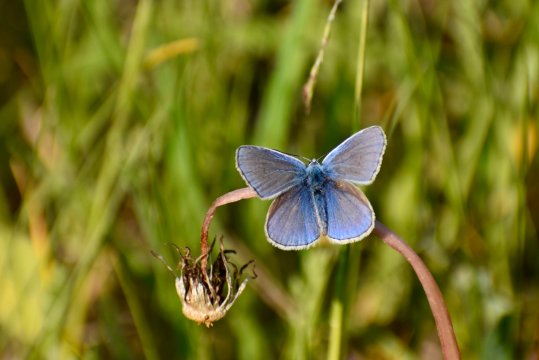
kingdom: Animalia
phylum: Arthropoda
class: Insecta
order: Lepidoptera
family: Lycaenidae
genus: Polyommatus
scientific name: Polyommatus icarus
